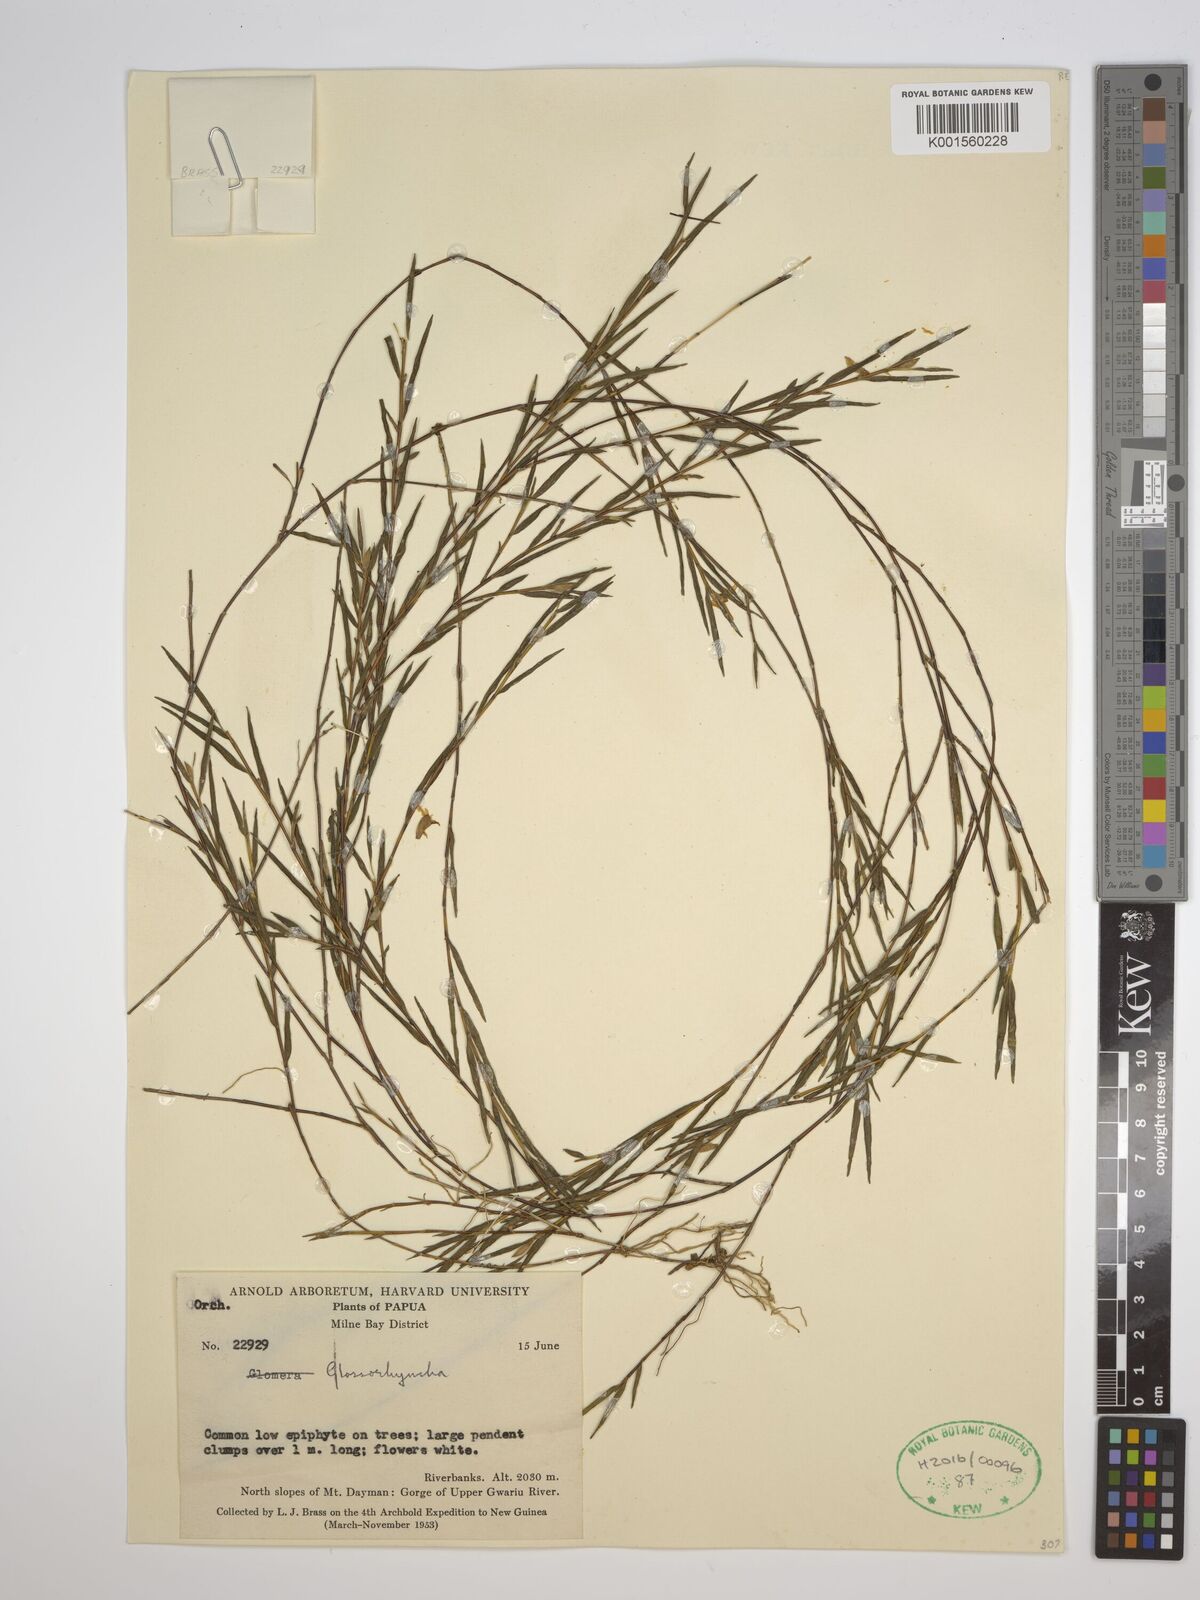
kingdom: Plantae
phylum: Tracheophyta
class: Liliopsida
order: Asparagales
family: Orchidaceae
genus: Glomera
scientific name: Glomera
